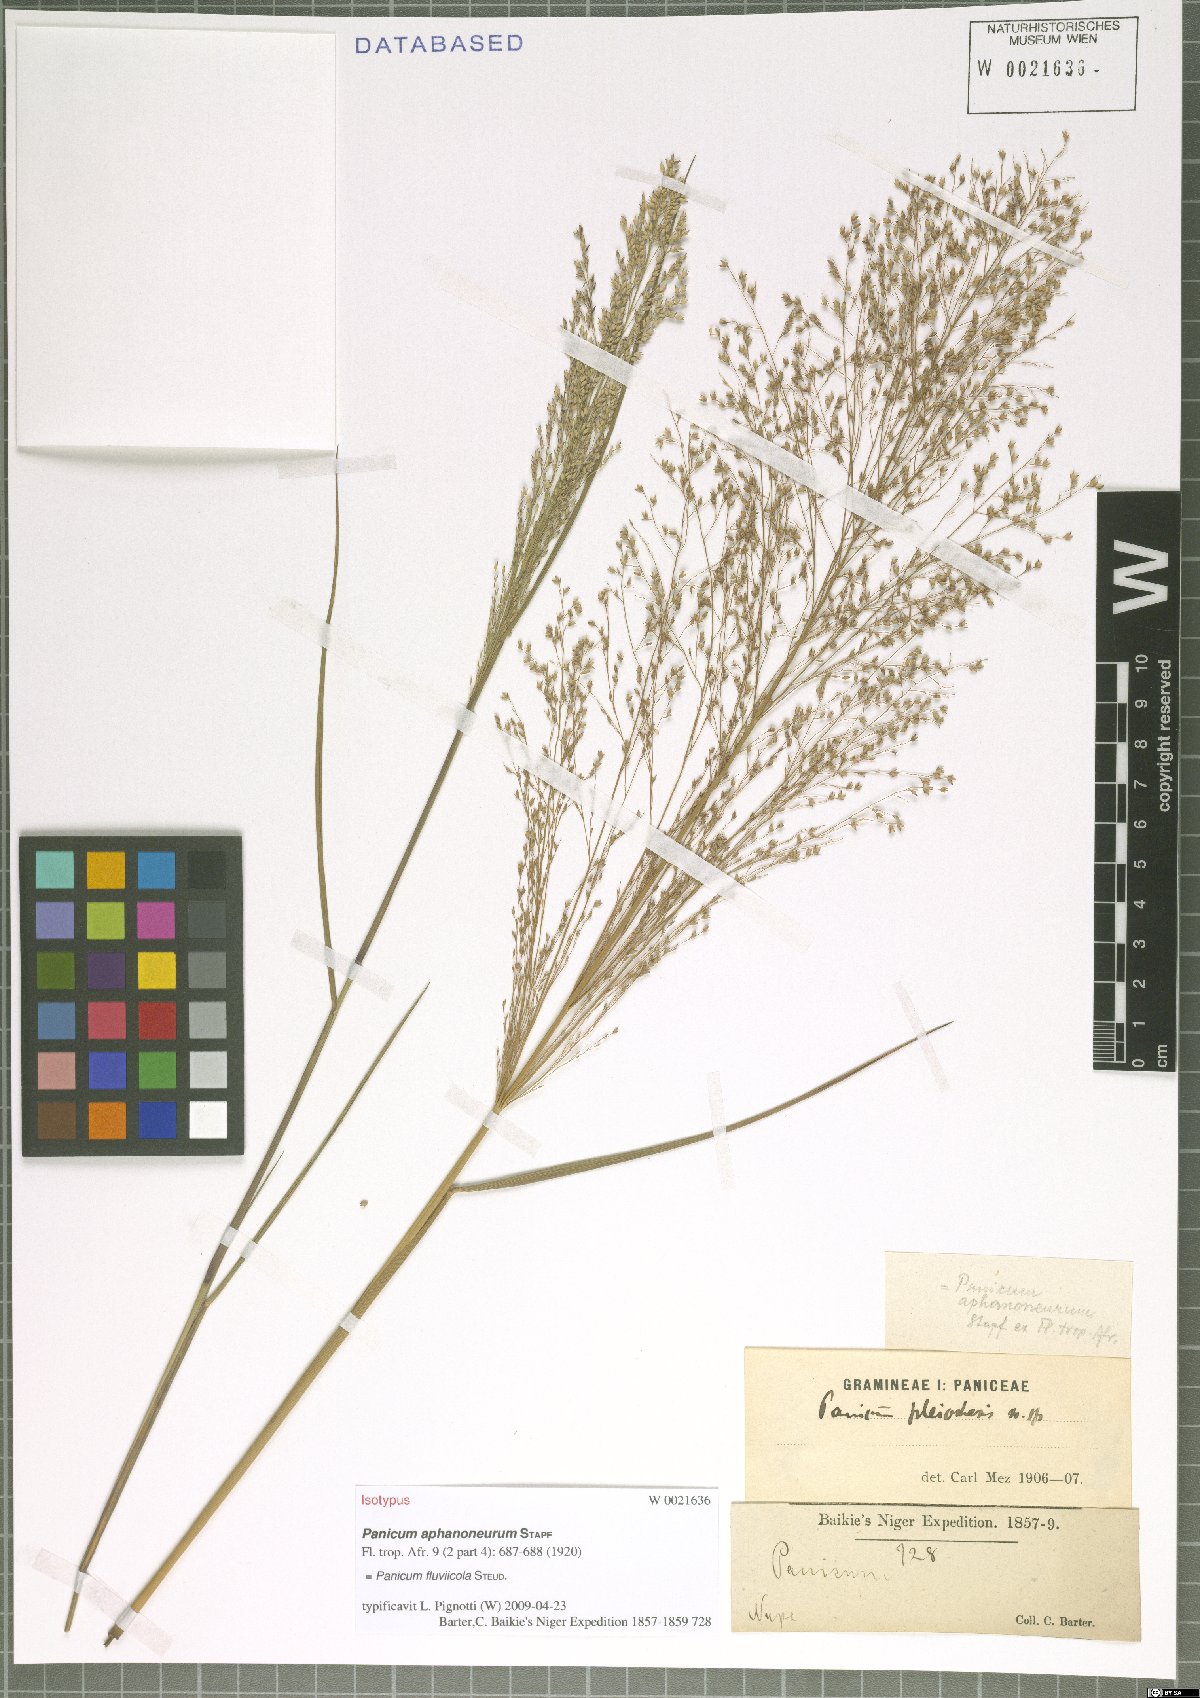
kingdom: Plantae
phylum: Tracheophyta
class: Liliopsida
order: Poales
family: Poaceae
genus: Panicum
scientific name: Panicum fluviicola
